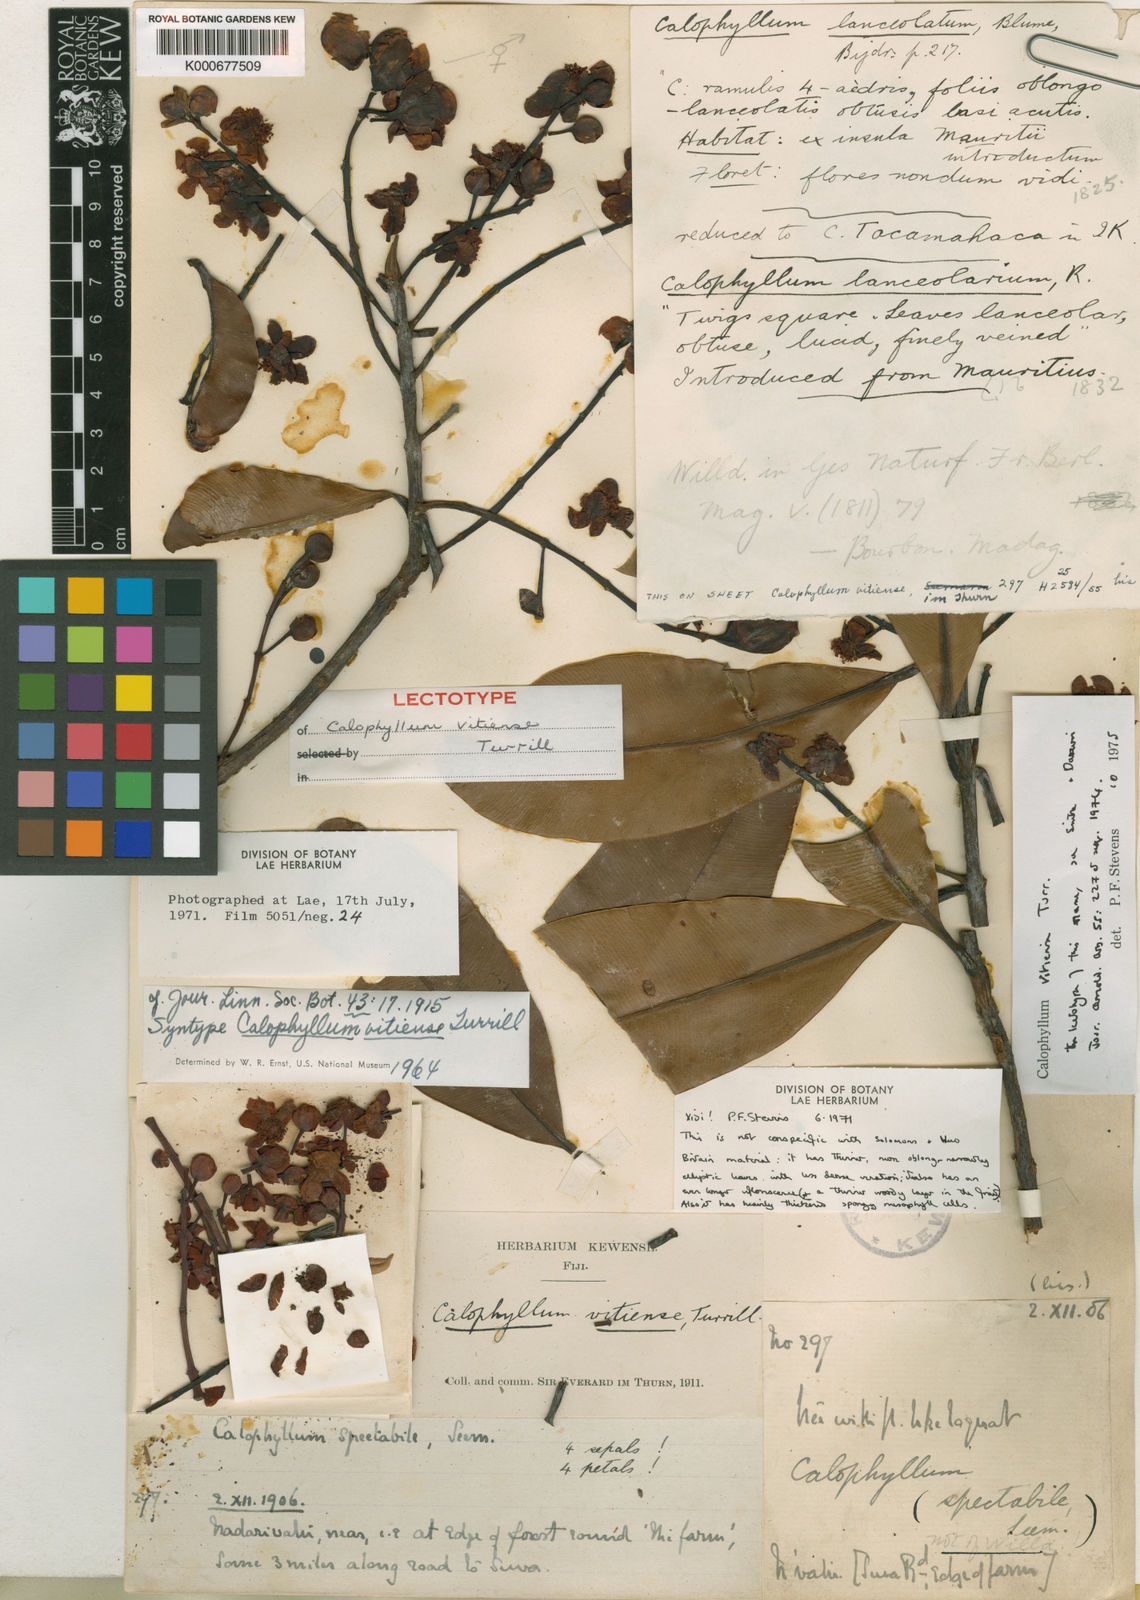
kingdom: Plantae
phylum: Tracheophyta
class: Magnoliopsida
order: Malpighiales
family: Calophyllaceae
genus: Calophyllum
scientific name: Calophyllum vitiense
